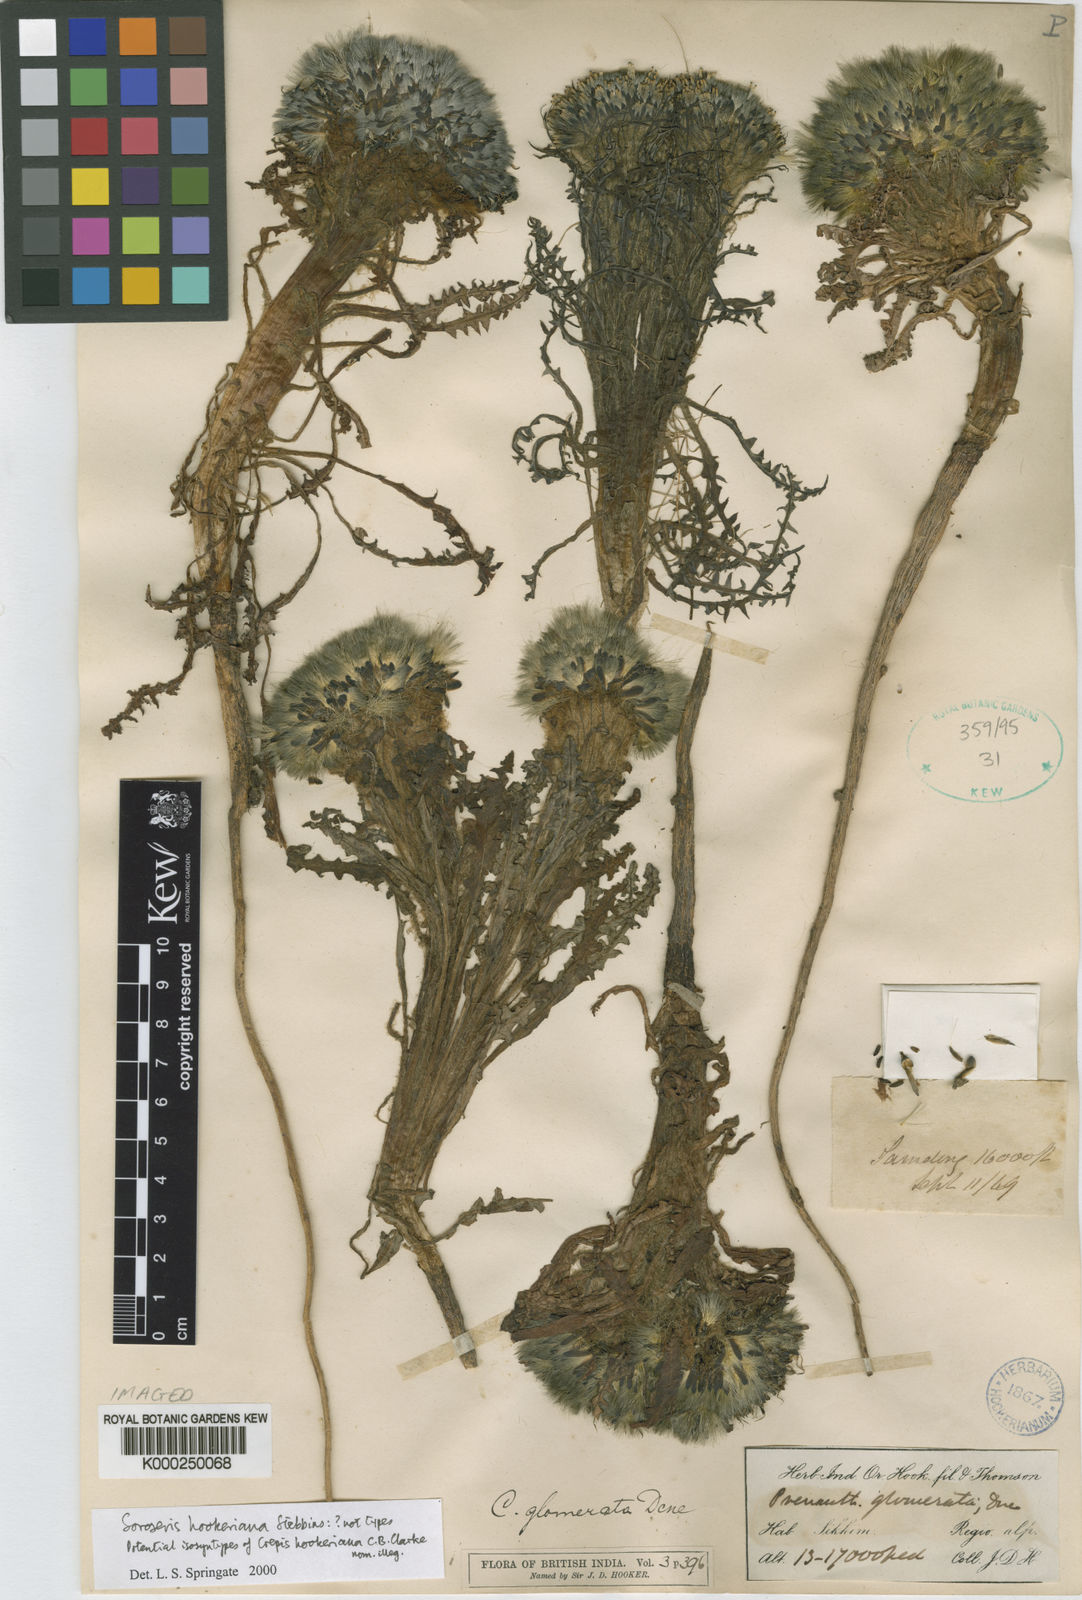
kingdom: Plantae
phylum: Tracheophyta
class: Magnoliopsida
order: Asterales
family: Asteraceae
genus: Soroseris
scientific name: Soroseris hookeriana
